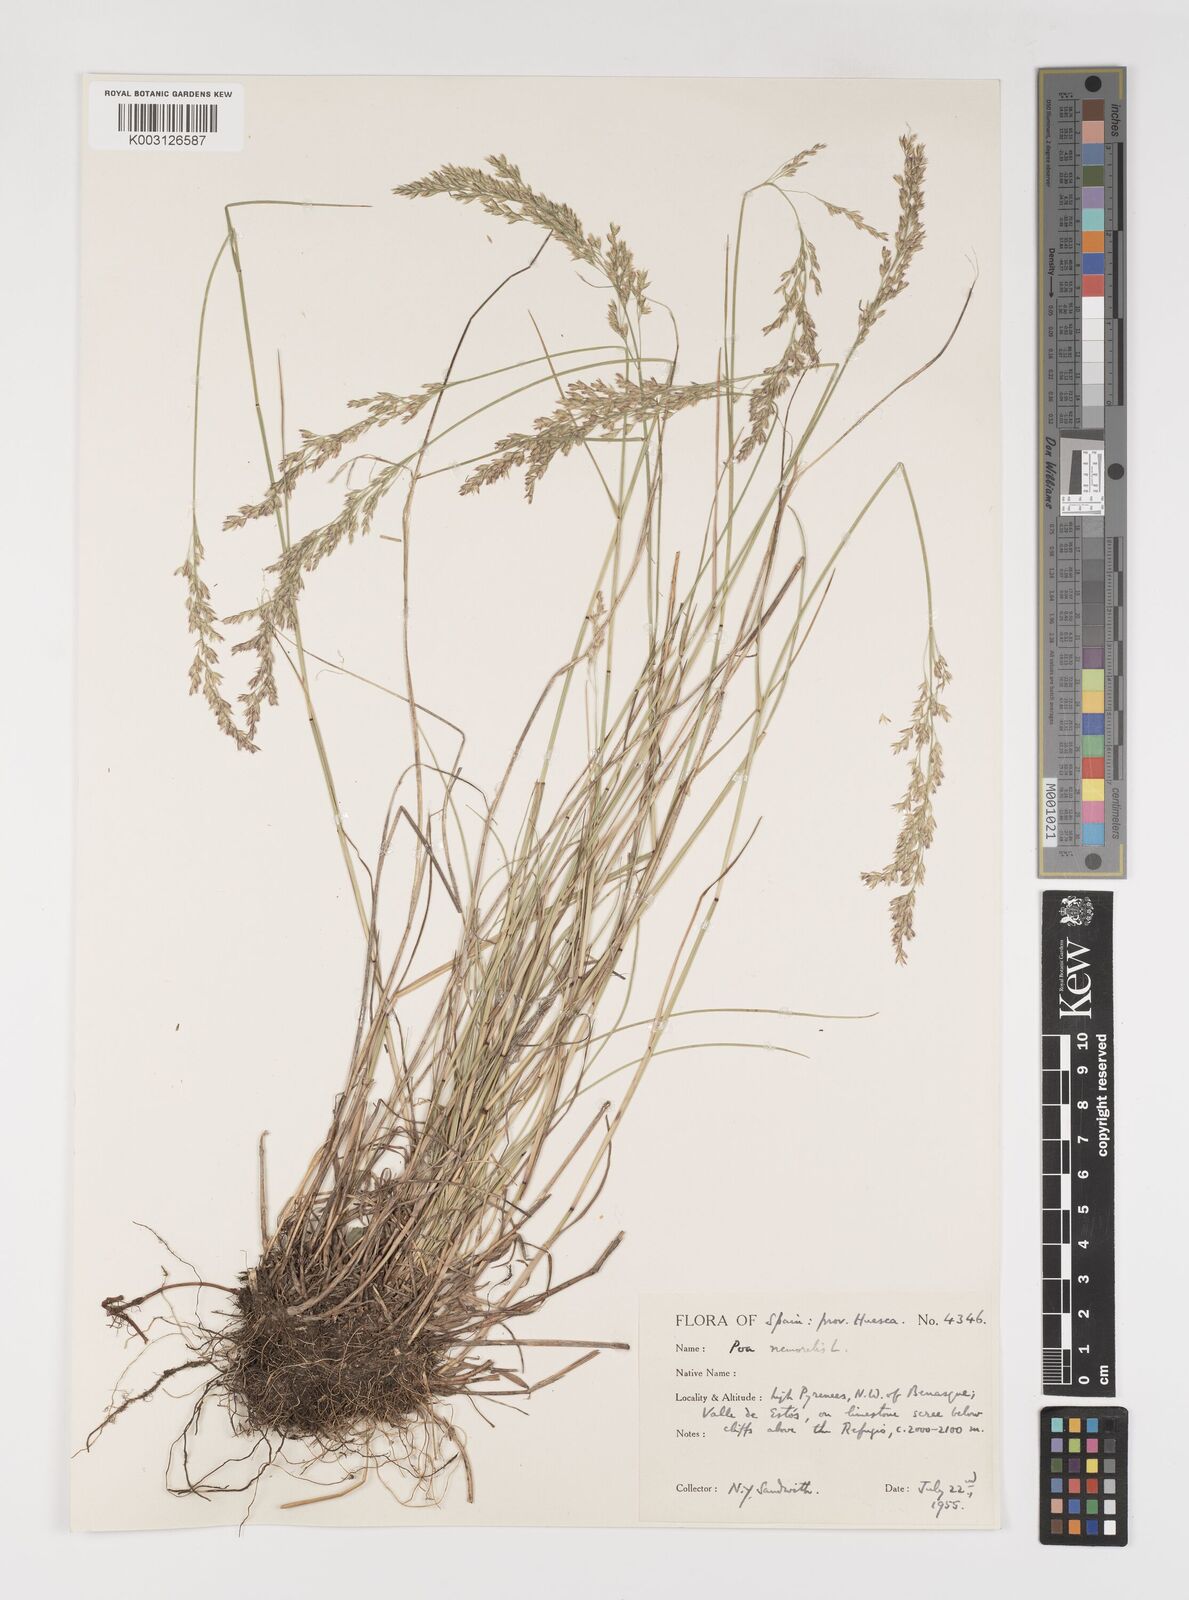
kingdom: Plantae
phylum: Tracheophyta
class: Liliopsida
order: Poales
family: Poaceae
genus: Poa
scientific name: Poa nemoralis
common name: Wood bluegrass
